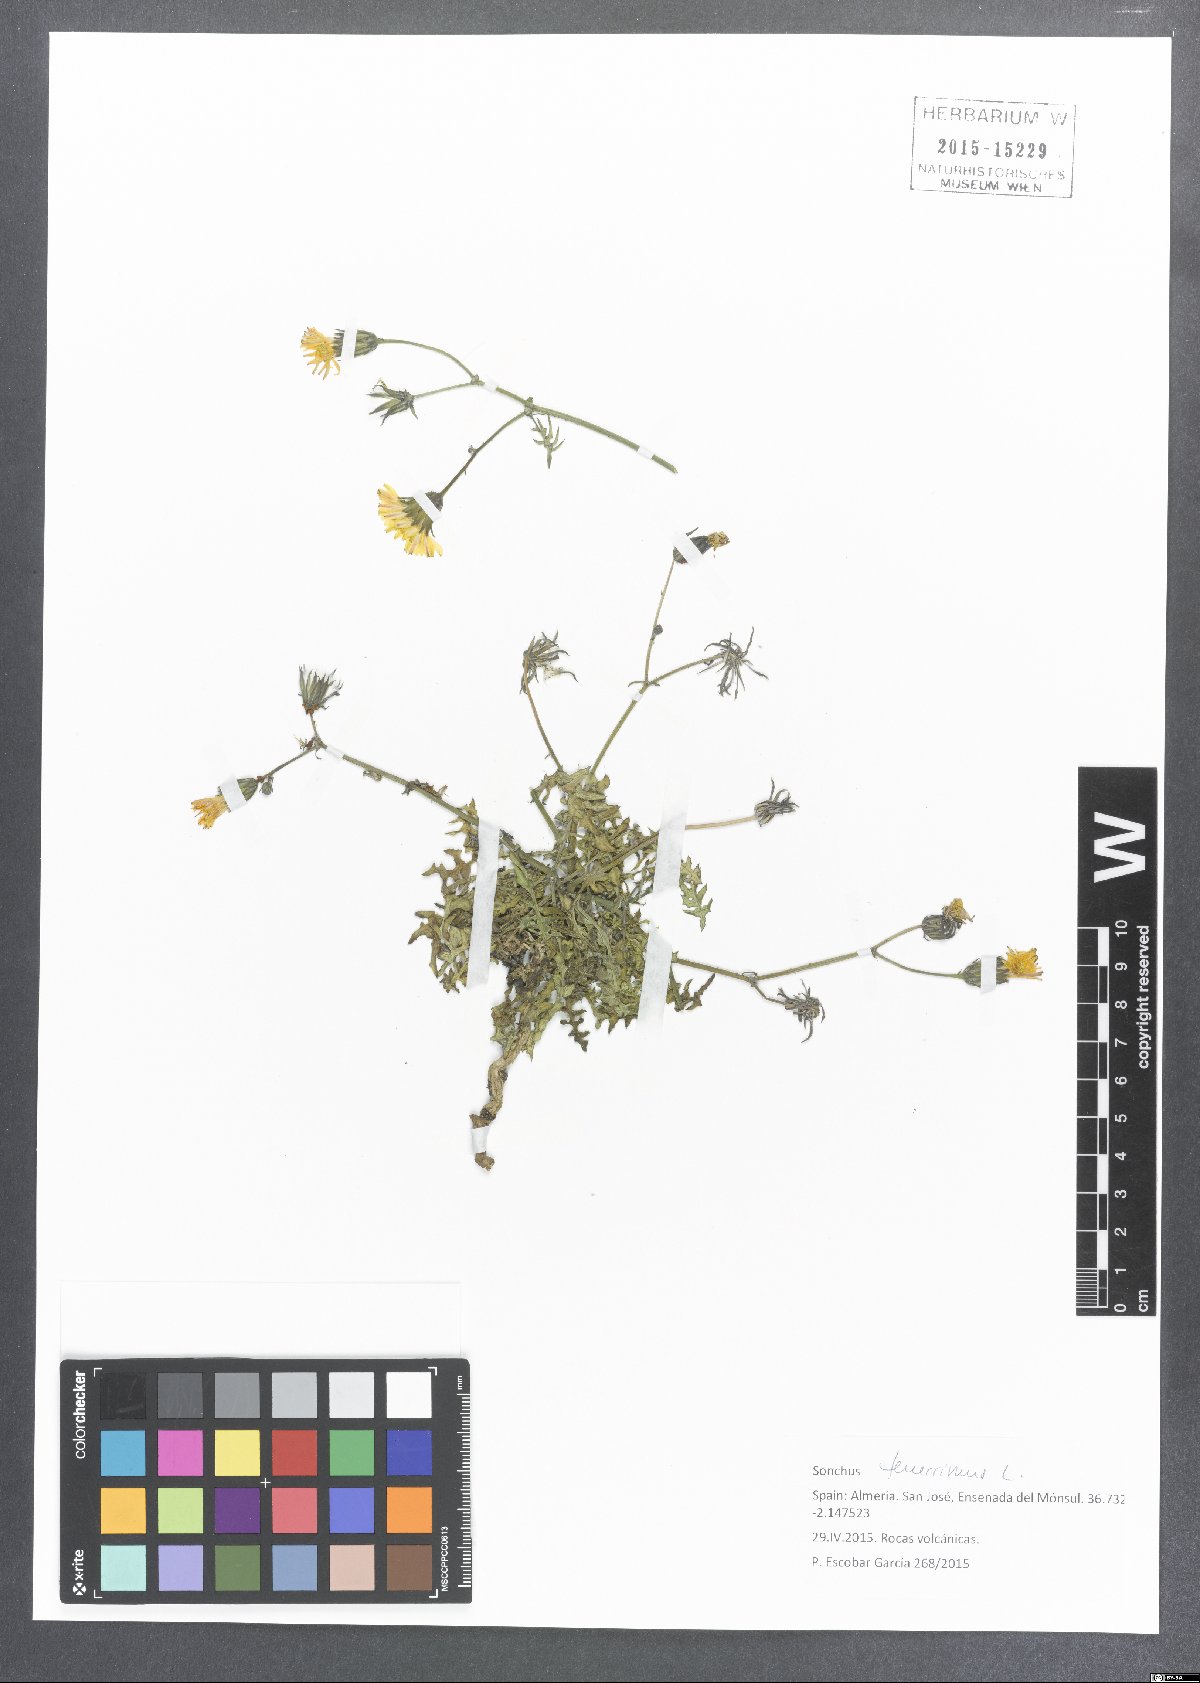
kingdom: Plantae
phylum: Tracheophyta
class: Magnoliopsida
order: Asterales
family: Asteraceae
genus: Sonchus
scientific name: Sonchus tenerrimus
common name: Clammy sowthistle
